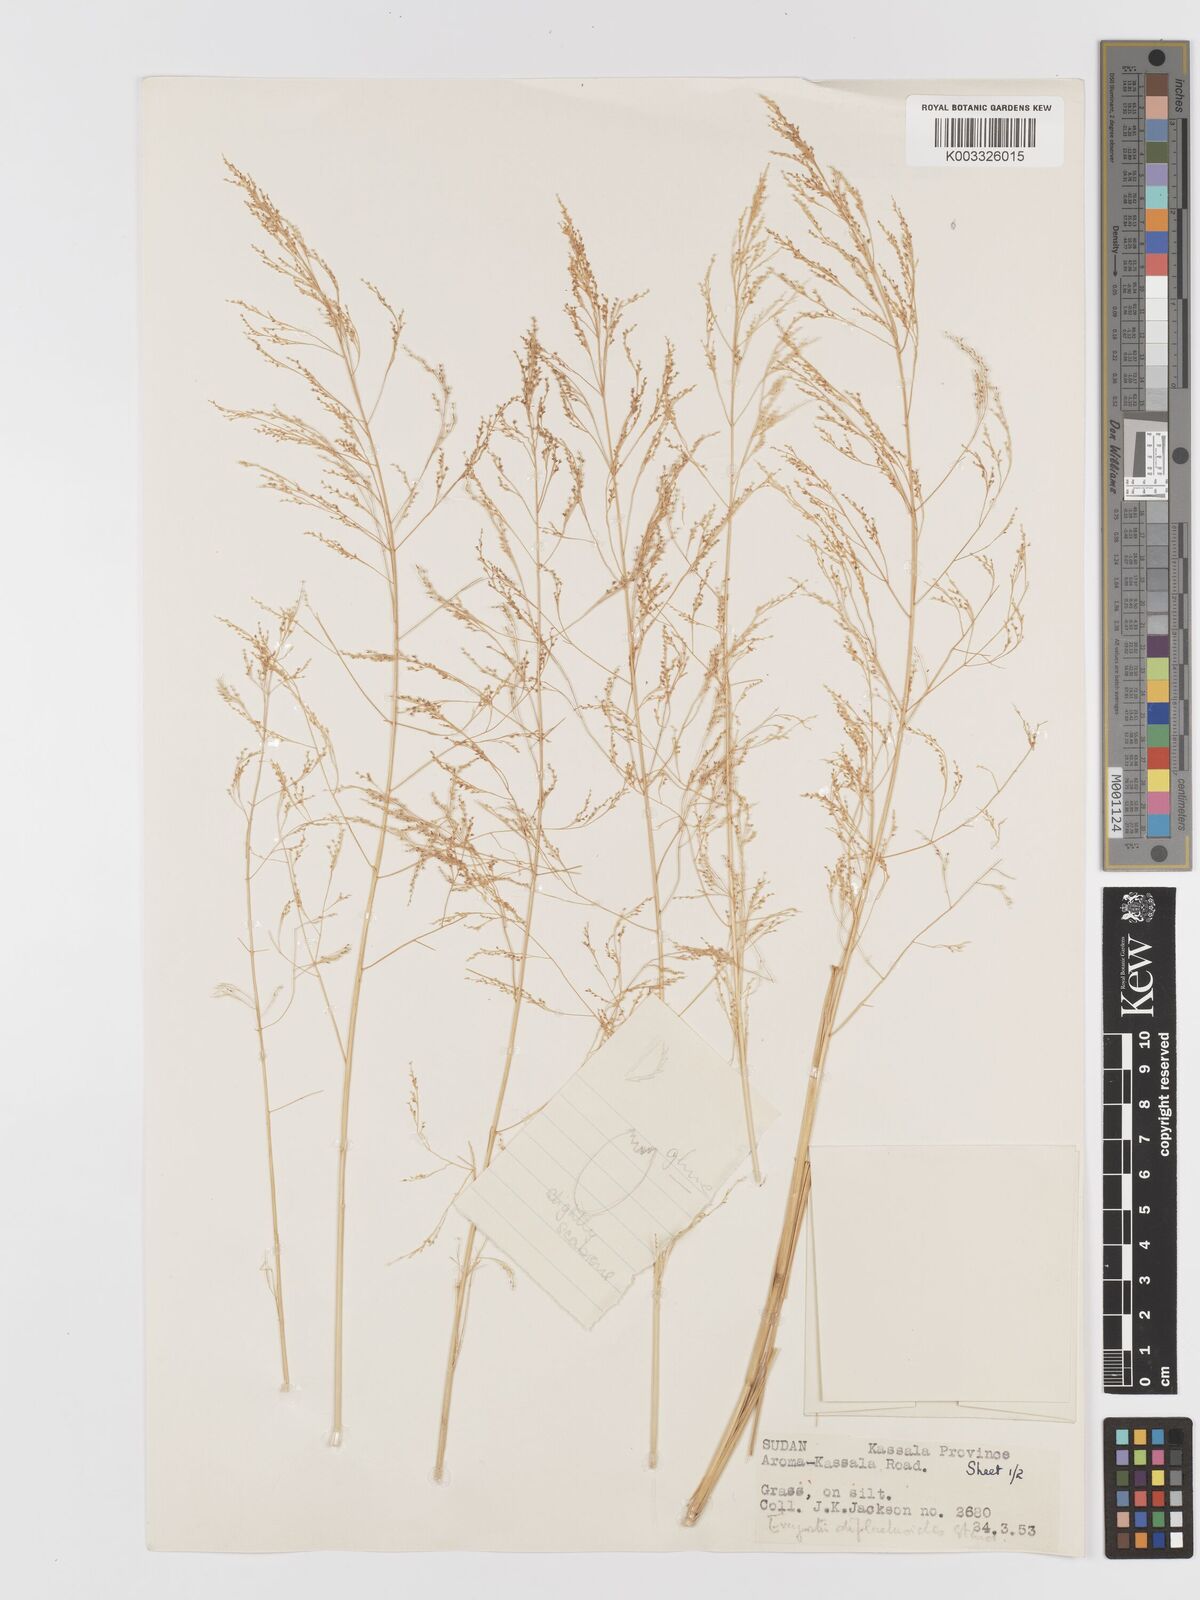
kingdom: Plantae
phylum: Tracheophyta
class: Liliopsida
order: Poales
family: Poaceae
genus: Eragrostis
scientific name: Eragrostis japonica
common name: Pond lovegrass
